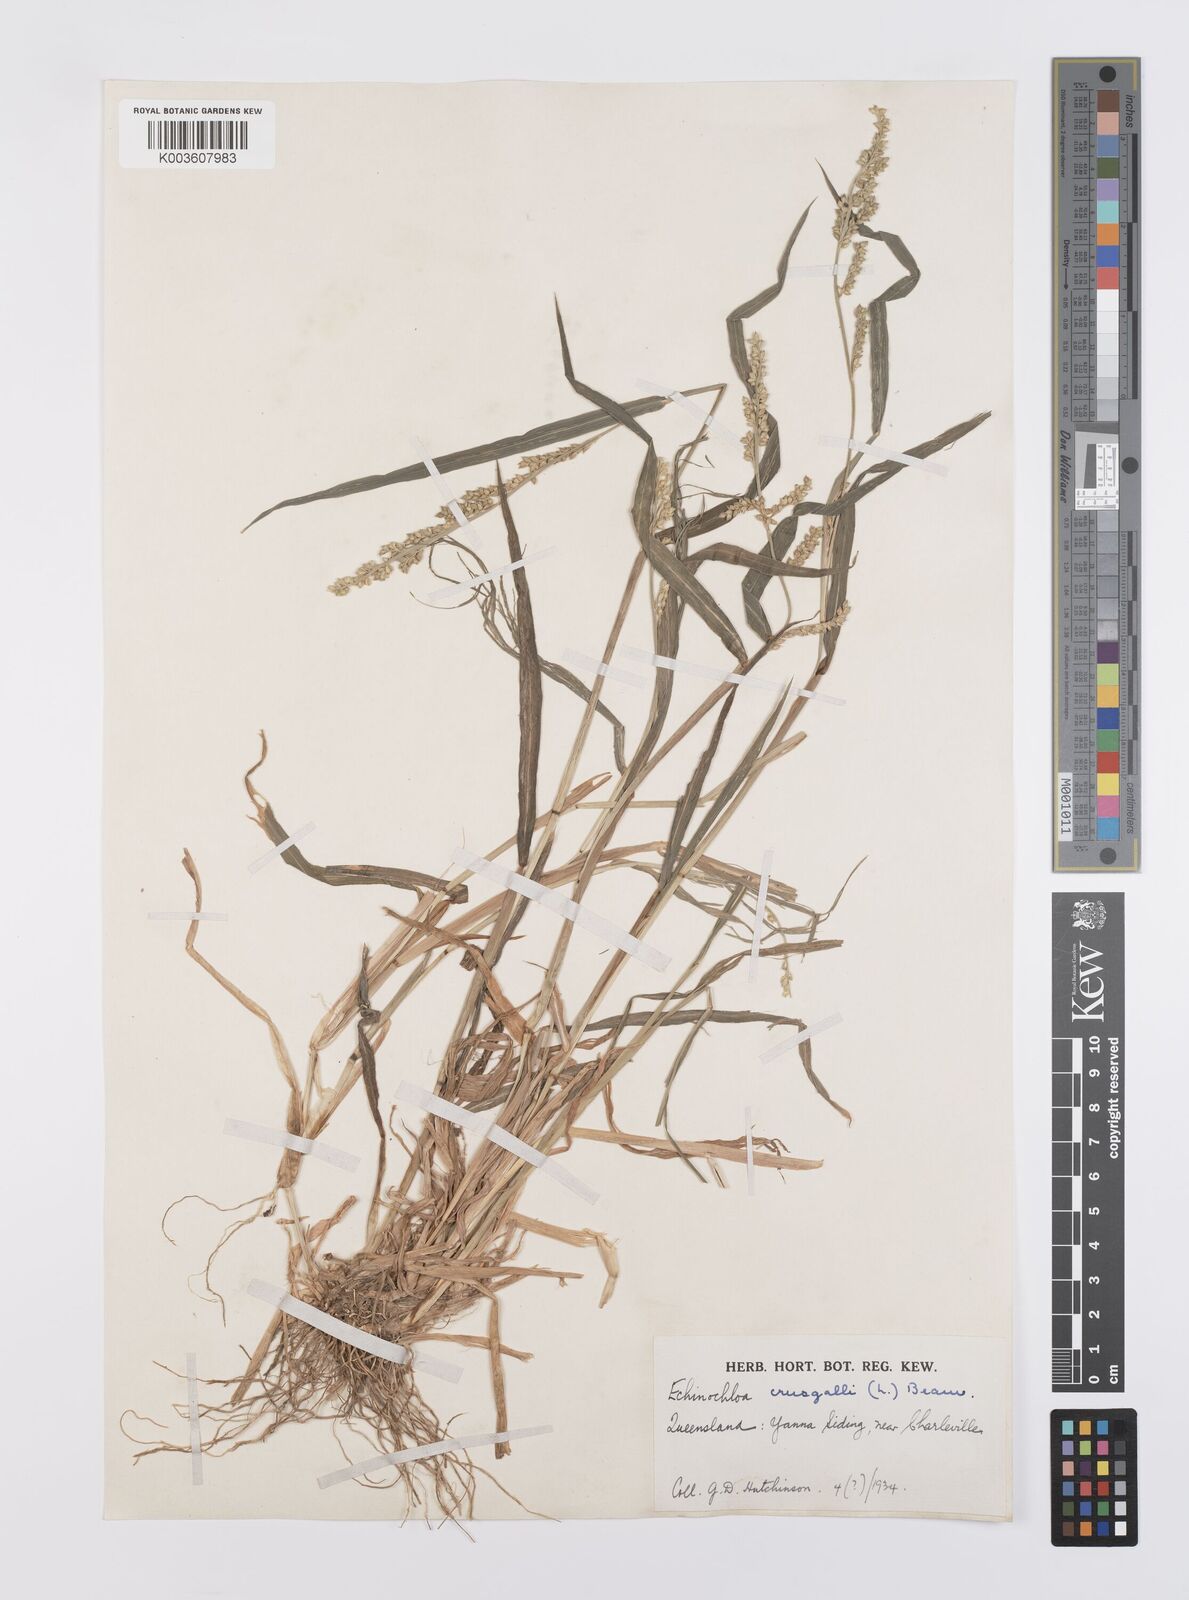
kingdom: Plantae
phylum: Tracheophyta
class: Liliopsida
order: Poales
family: Poaceae
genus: Echinochloa
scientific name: Echinochloa crus-galli
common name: Cockspur
